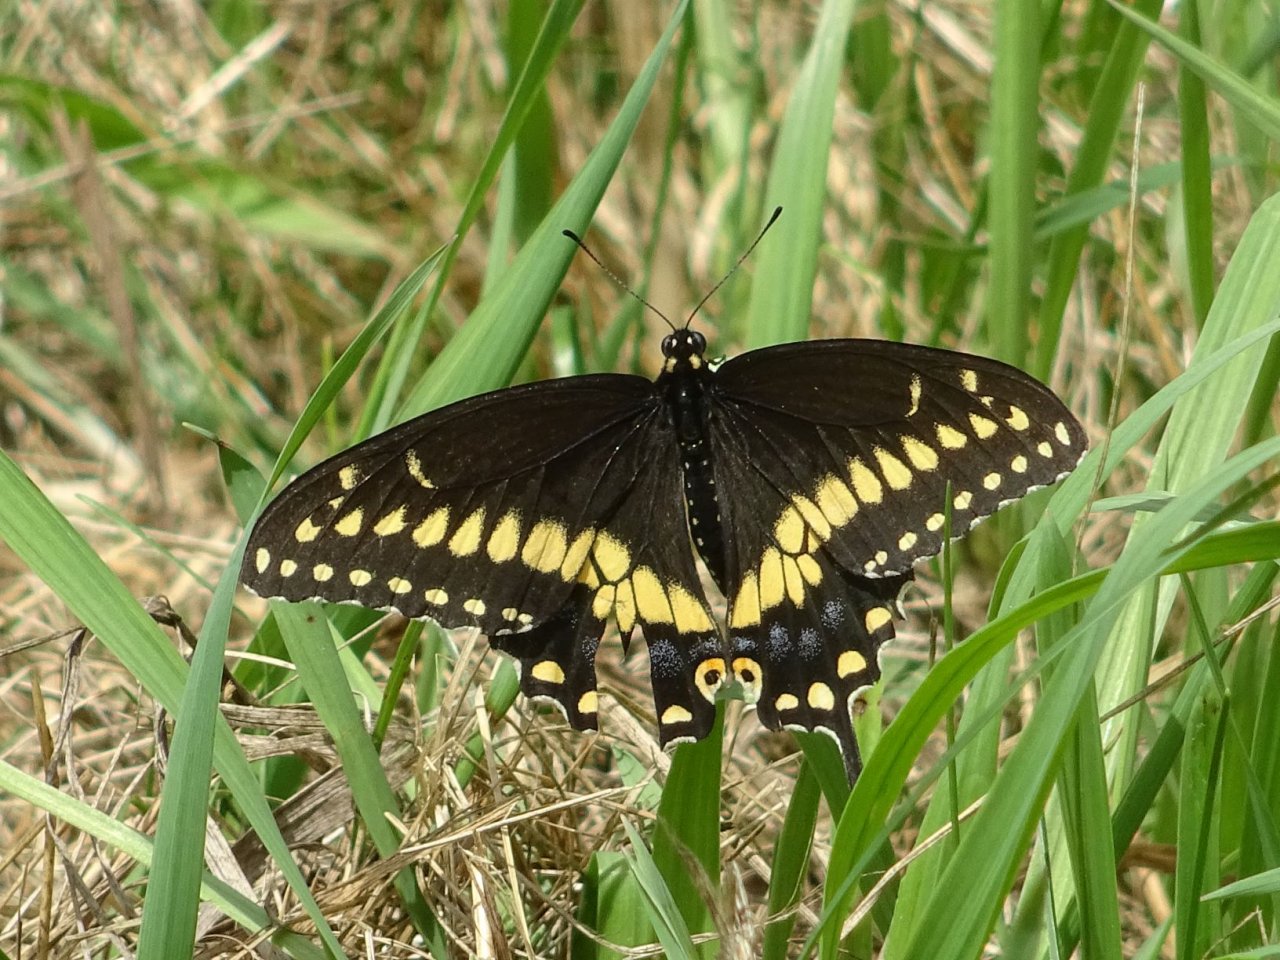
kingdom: Animalia
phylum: Arthropoda
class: Insecta
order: Lepidoptera
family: Papilionidae
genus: Papilio
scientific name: Papilio polyxenes
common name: Black Swallowtail
